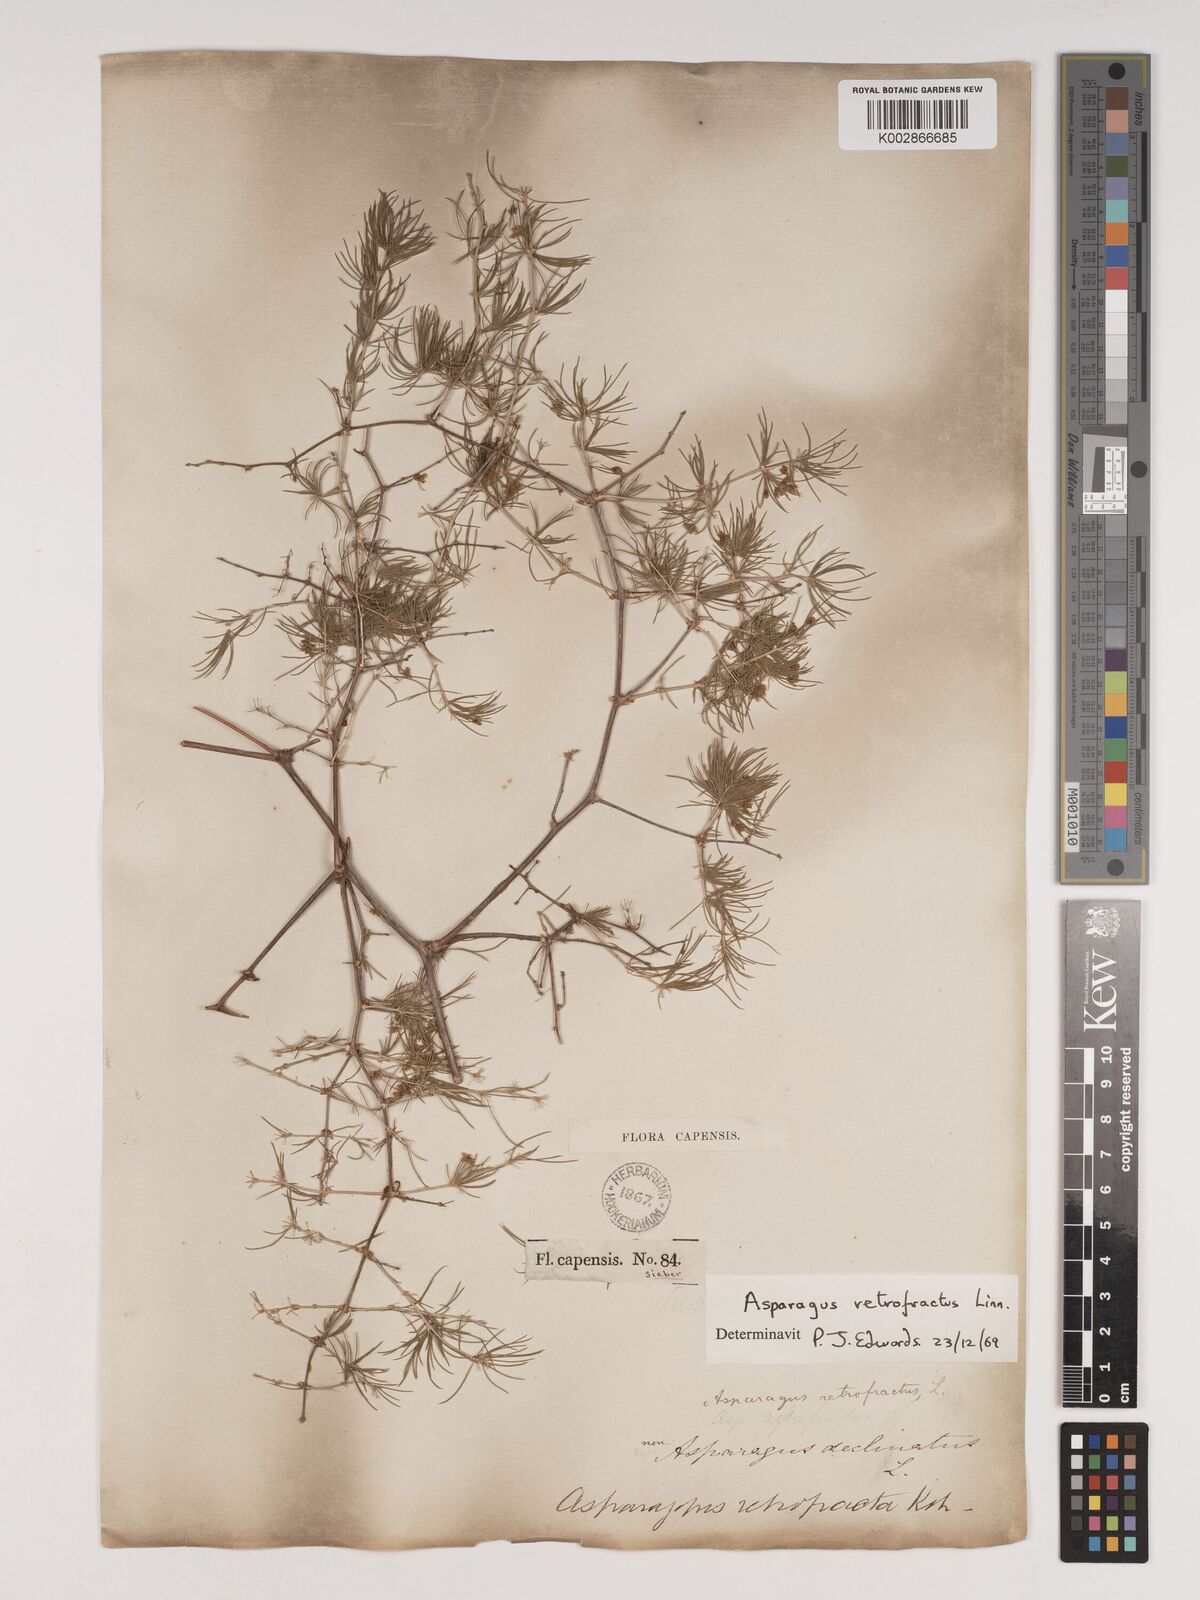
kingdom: Plantae
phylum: Tracheophyta
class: Liliopsida
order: Asparagales
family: Asparagaceae
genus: Asparagus
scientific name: Asparagus retrofractus
